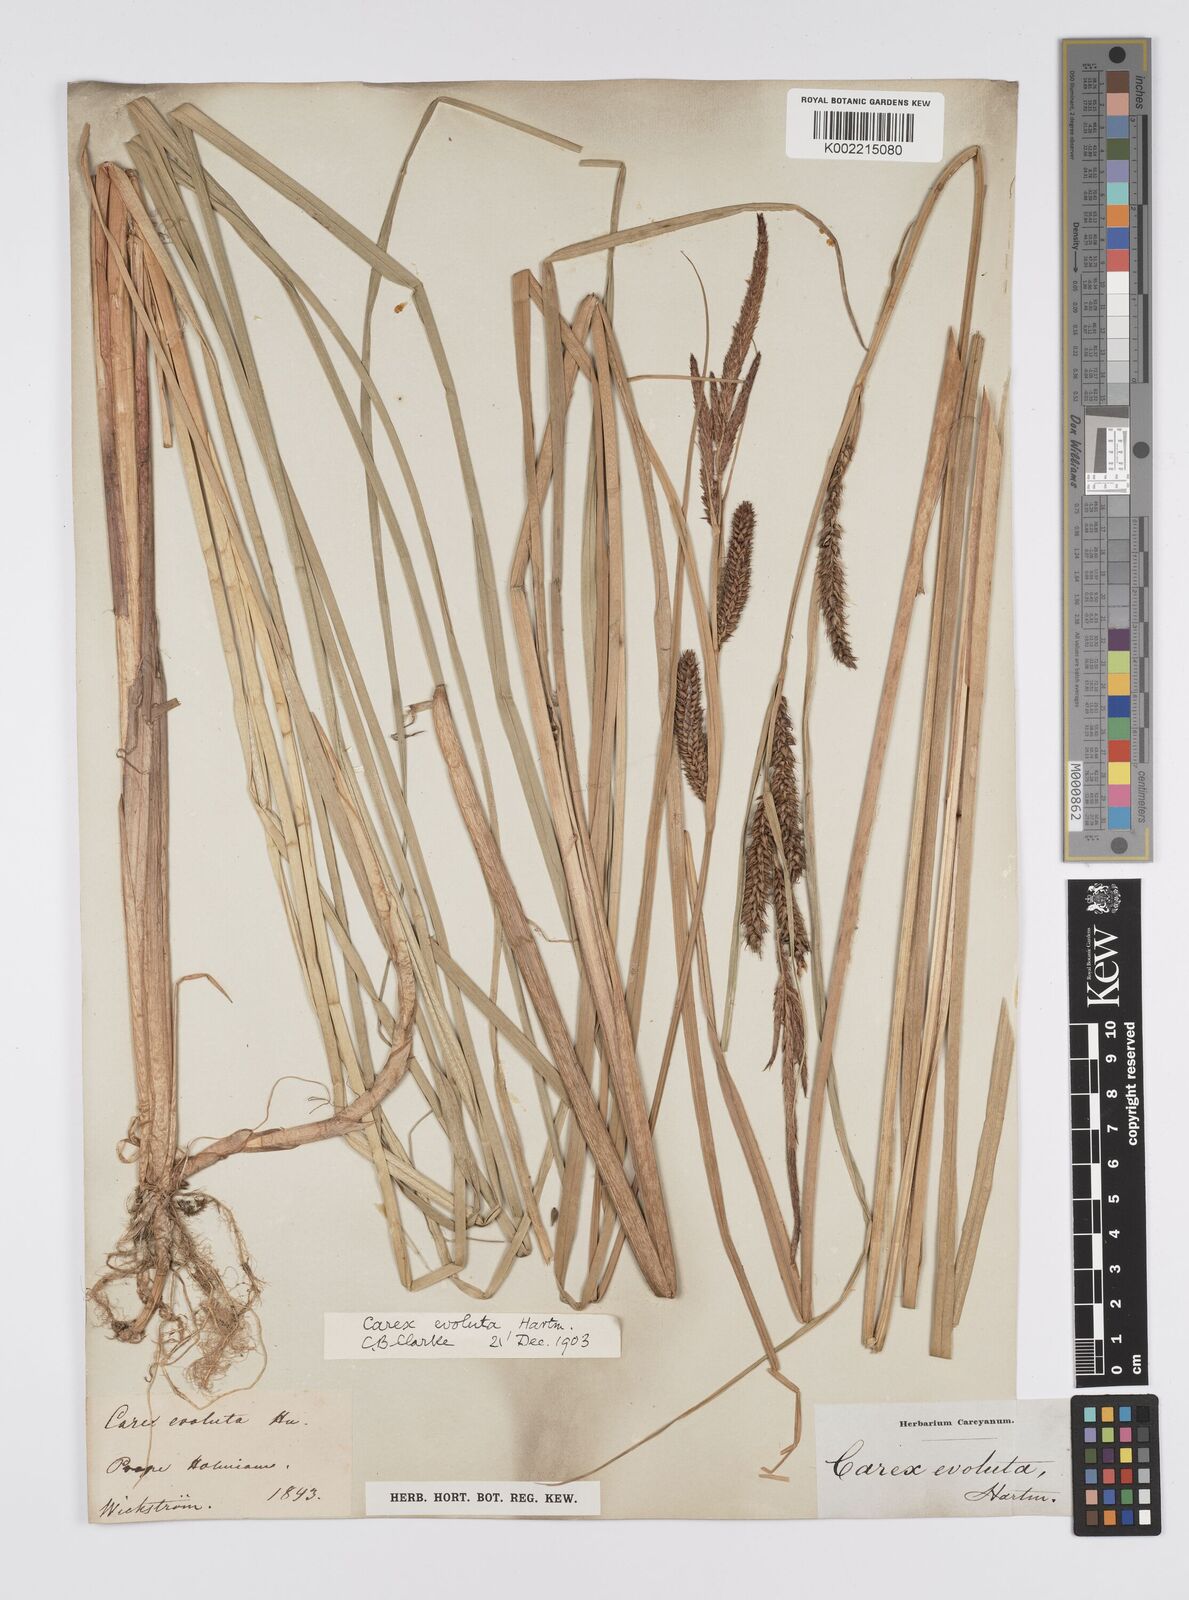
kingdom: Plantae
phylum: Tracheophyta
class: Liliopsida
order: Poales
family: Cyperaceae
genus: Carex
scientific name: Carex evoluta
